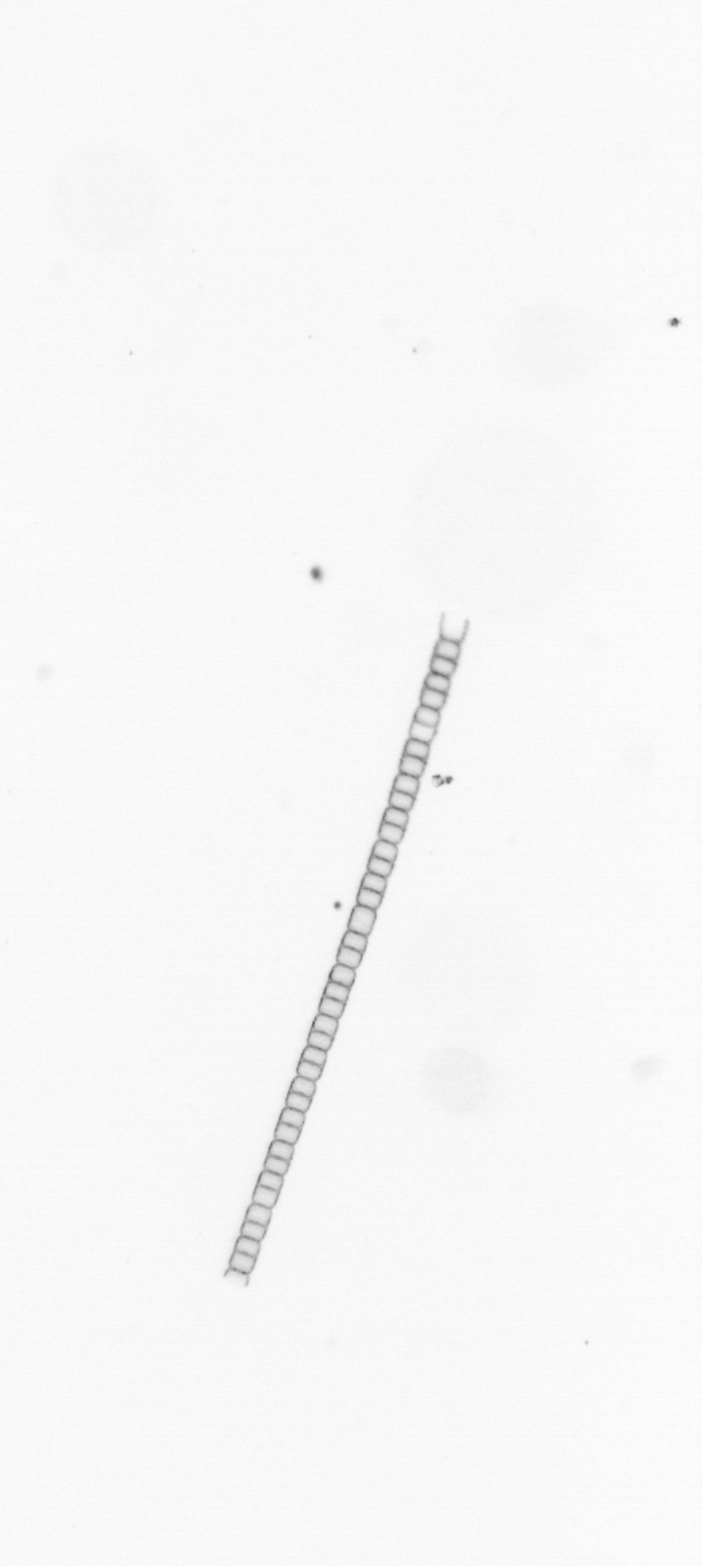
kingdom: Chromista
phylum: Ochrophyta
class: Bacillariophyceae
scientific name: Bacillariophyceae
